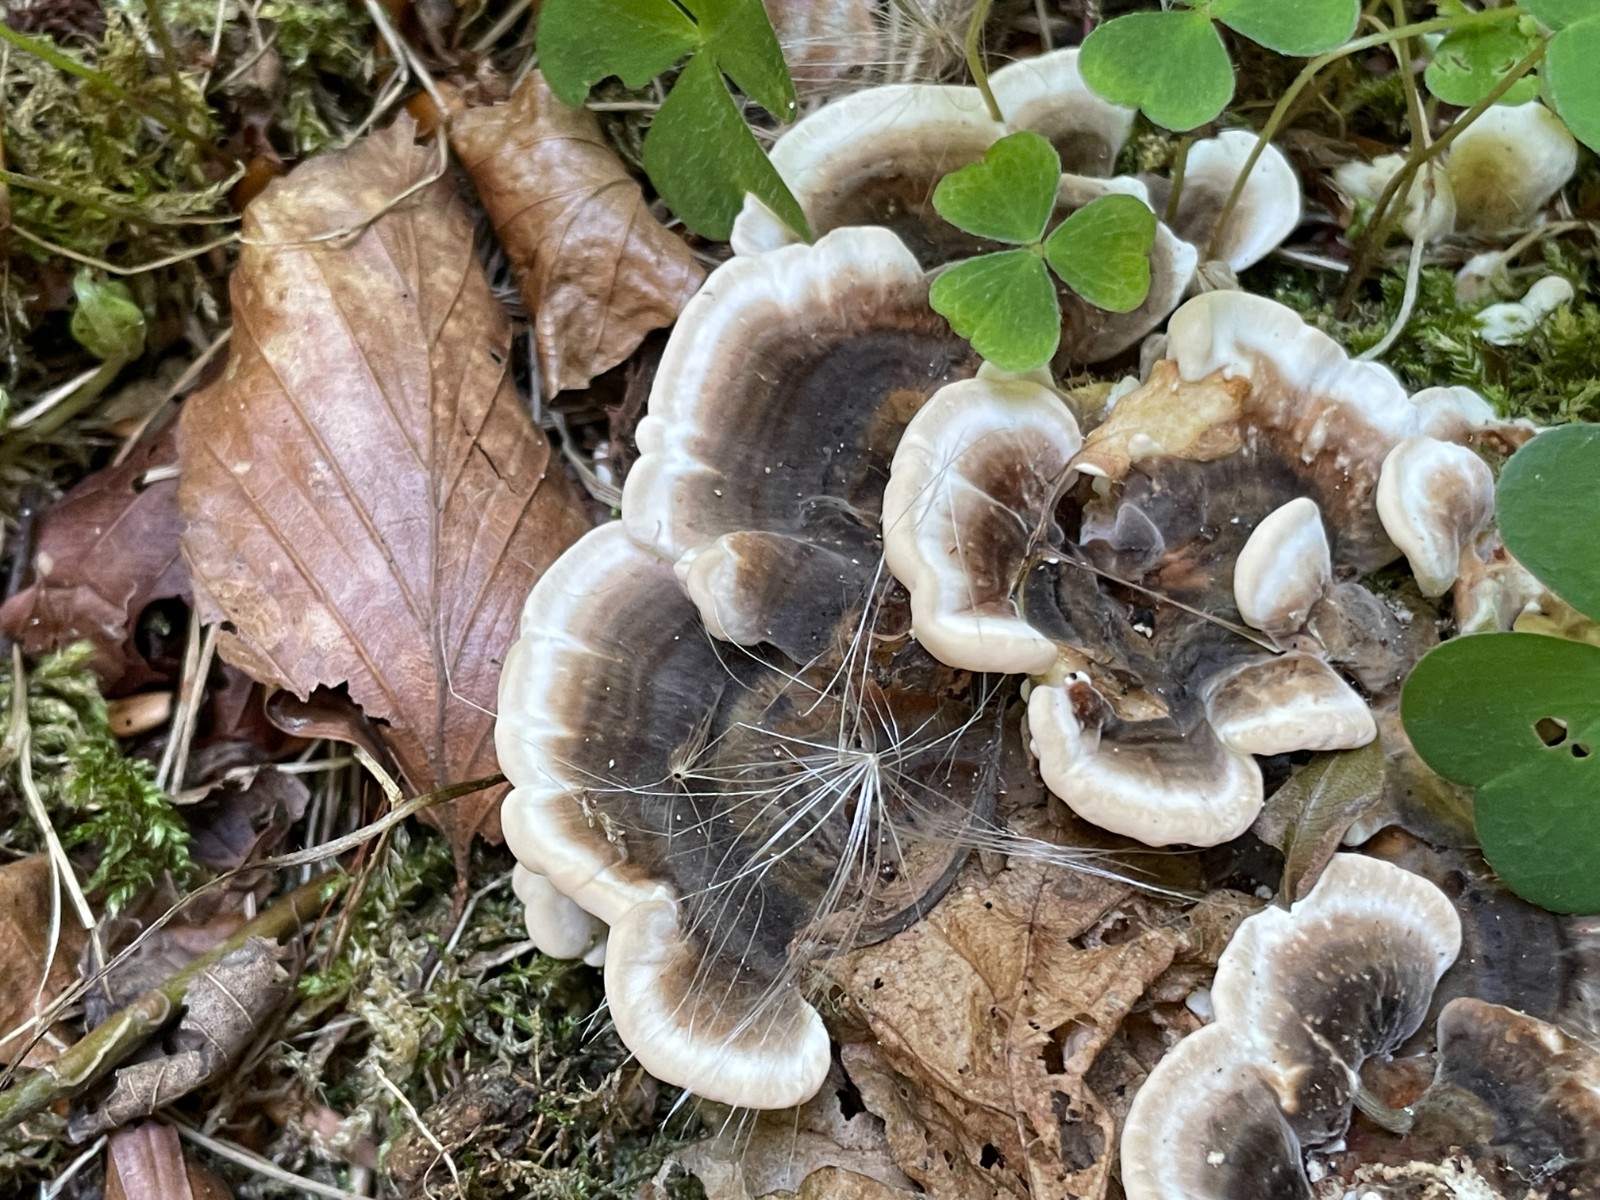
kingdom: Fungi
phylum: Basidiomycota
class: Agaricomycetes
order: Polyporales
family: Polyporaceae
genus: Trametes
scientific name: Trametes versicolor
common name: broget læderporesvamp
